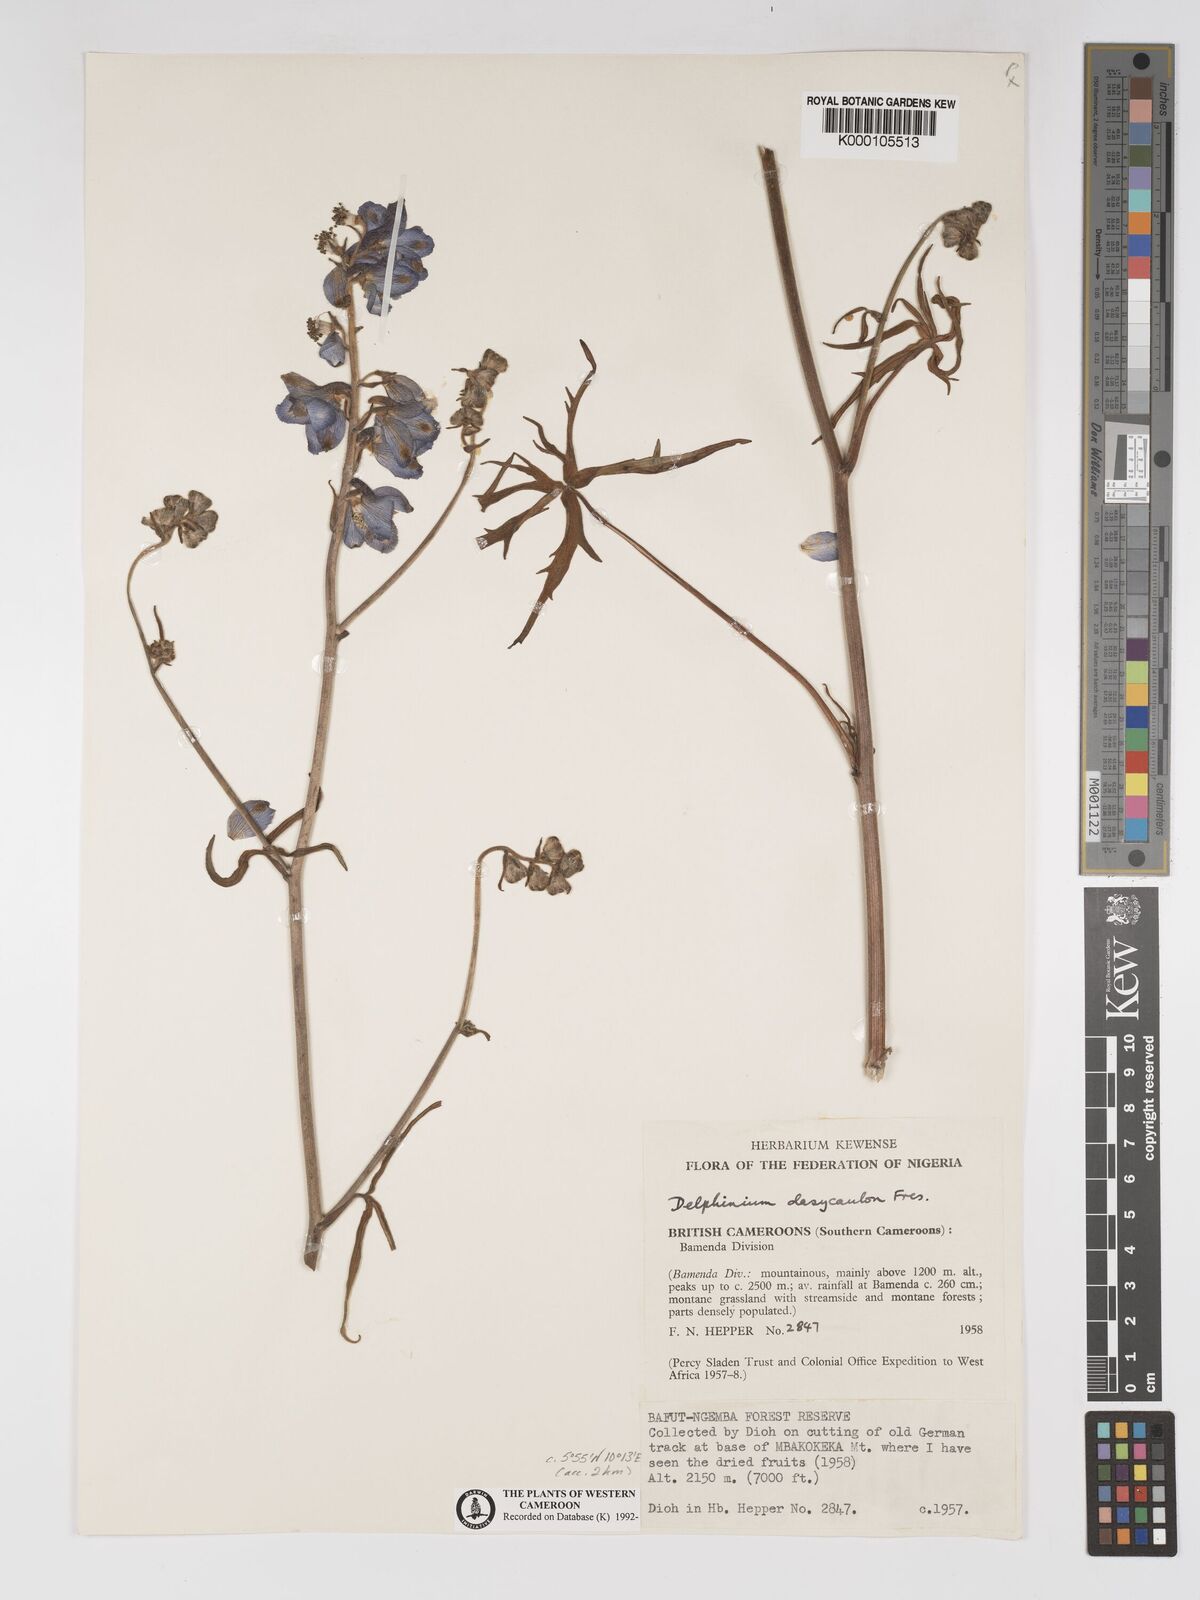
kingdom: Plantae
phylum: Tracheophyta
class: Magnoliopsida
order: Ranunculales
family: Ranunculaceae
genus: Delphinium
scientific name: Delphinium dasycaulon
